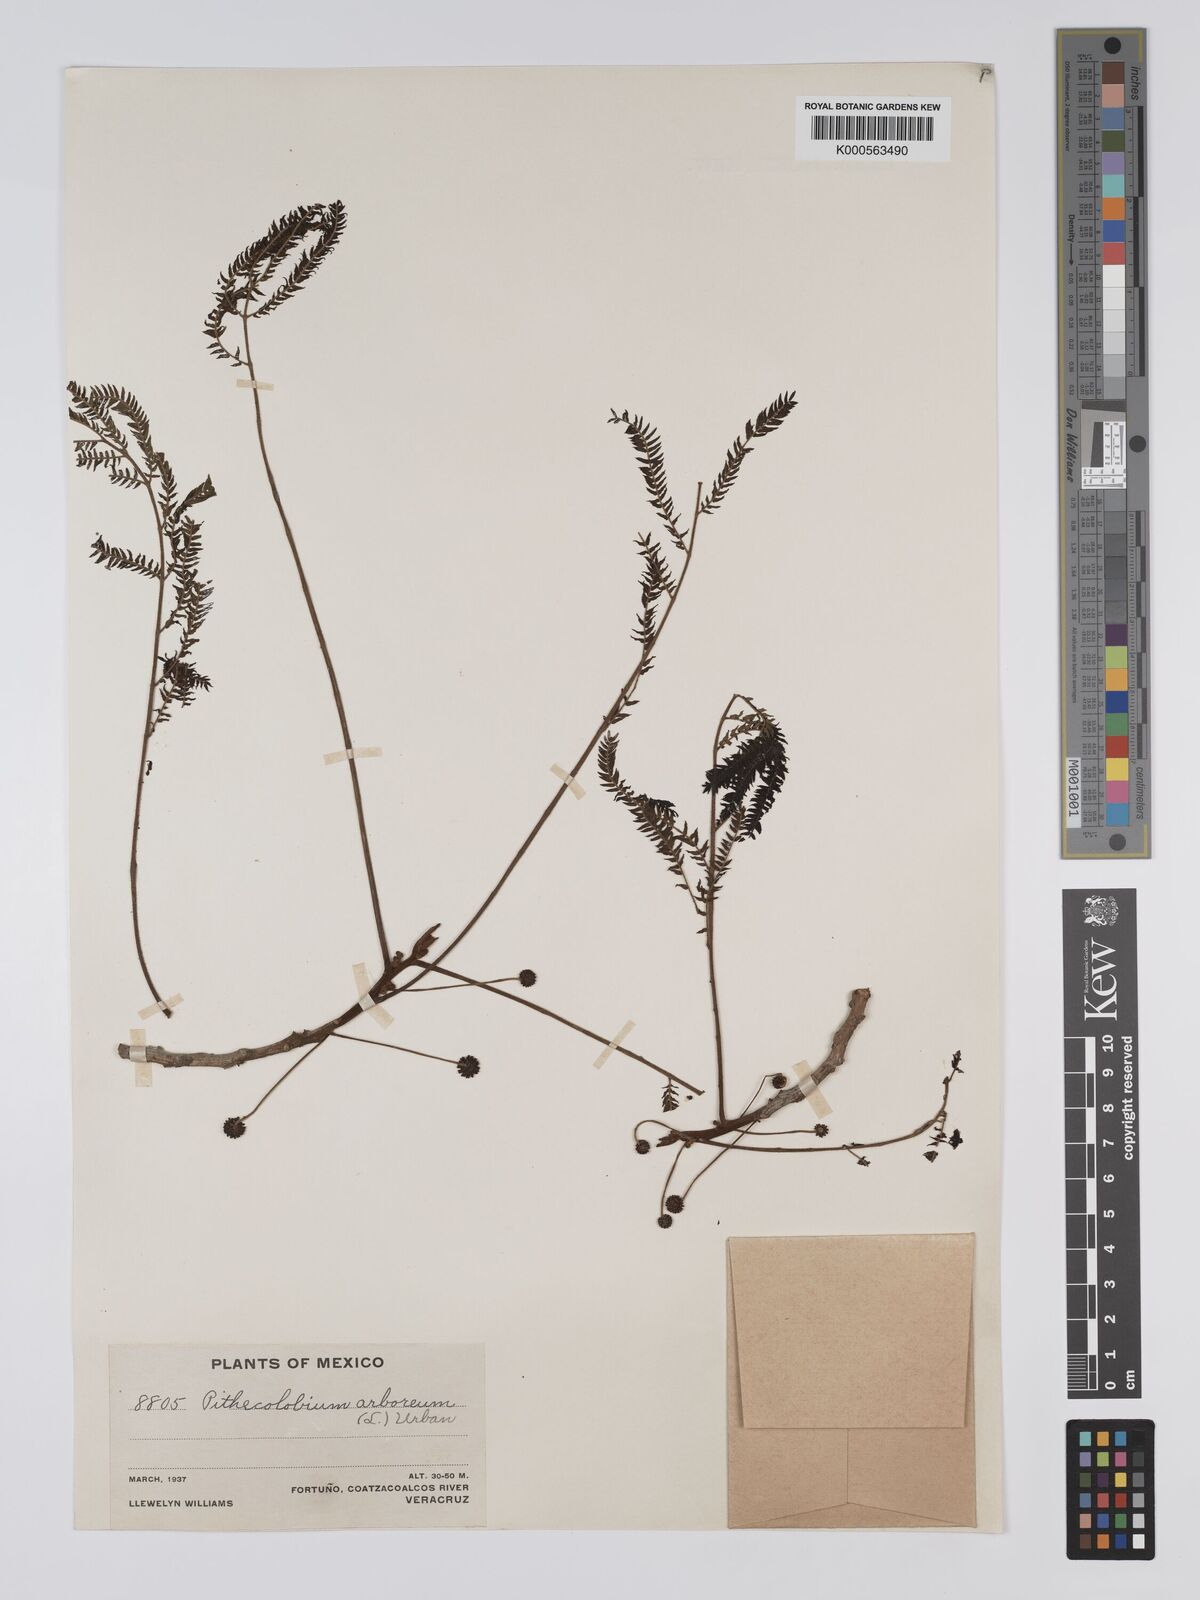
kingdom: Plantae
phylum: Tracheophyta
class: Magnoliopsida
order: Fabales
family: Fabaceae
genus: Cojoba
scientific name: Cojoba arborea
